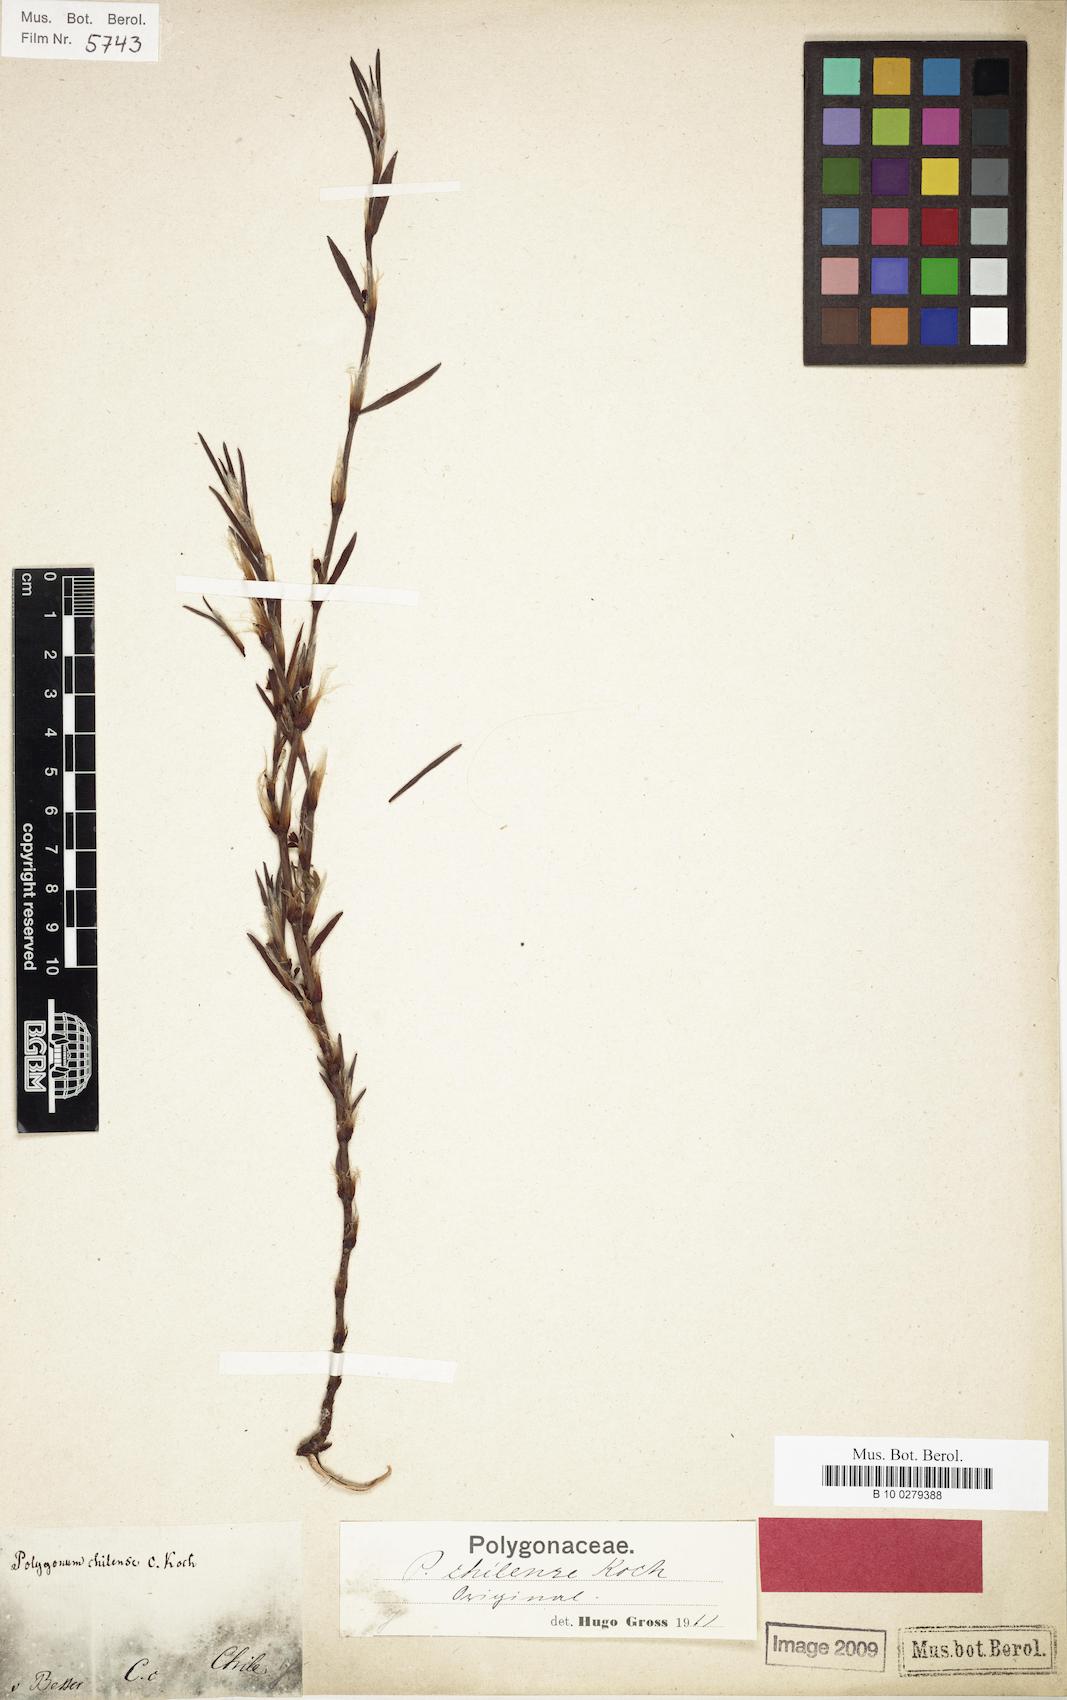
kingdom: Plantae
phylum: Tracheophyta
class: Magnoliopsida
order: Caryophyllales
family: Polygonaceae
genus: Polygonum
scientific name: Polygonum maritimum
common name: Sea knotgrass
